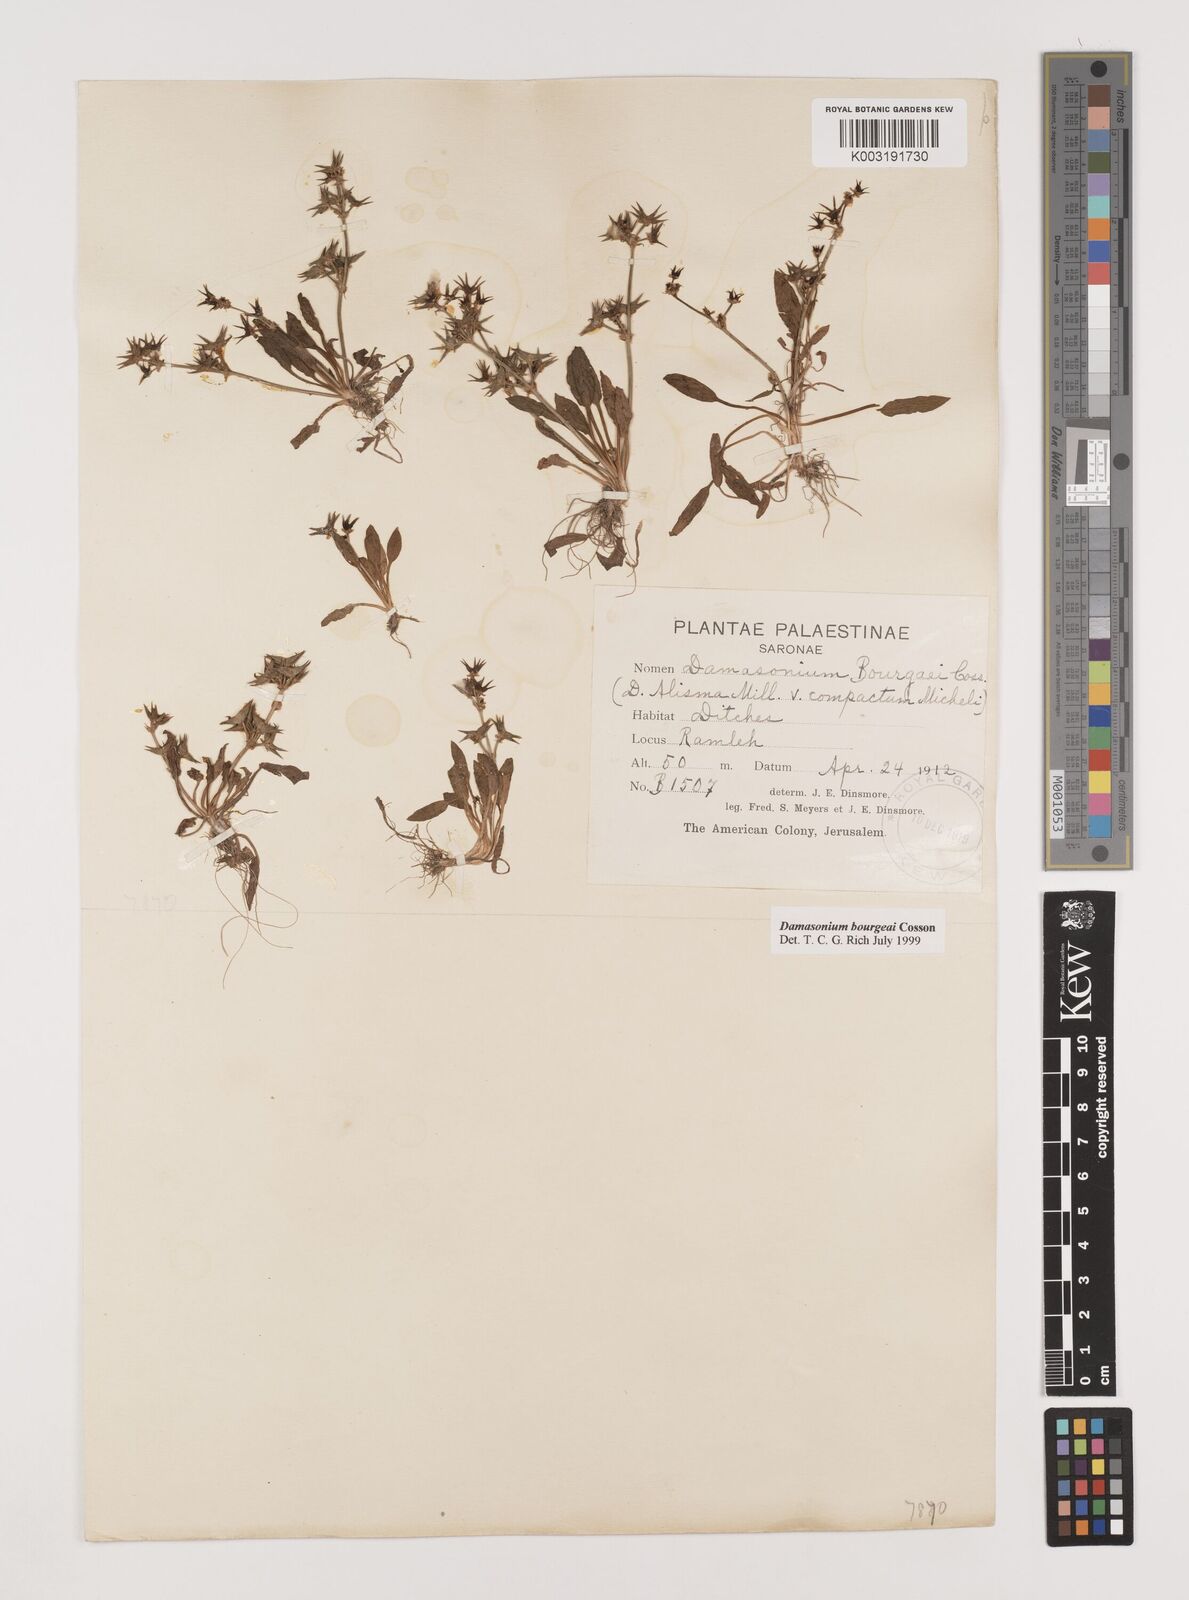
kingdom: Plantae
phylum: Tracheophyta
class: Liliopsida
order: Alismatales
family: Alismataceae
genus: Damasonium
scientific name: Damasonium alisma
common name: Starfruit
